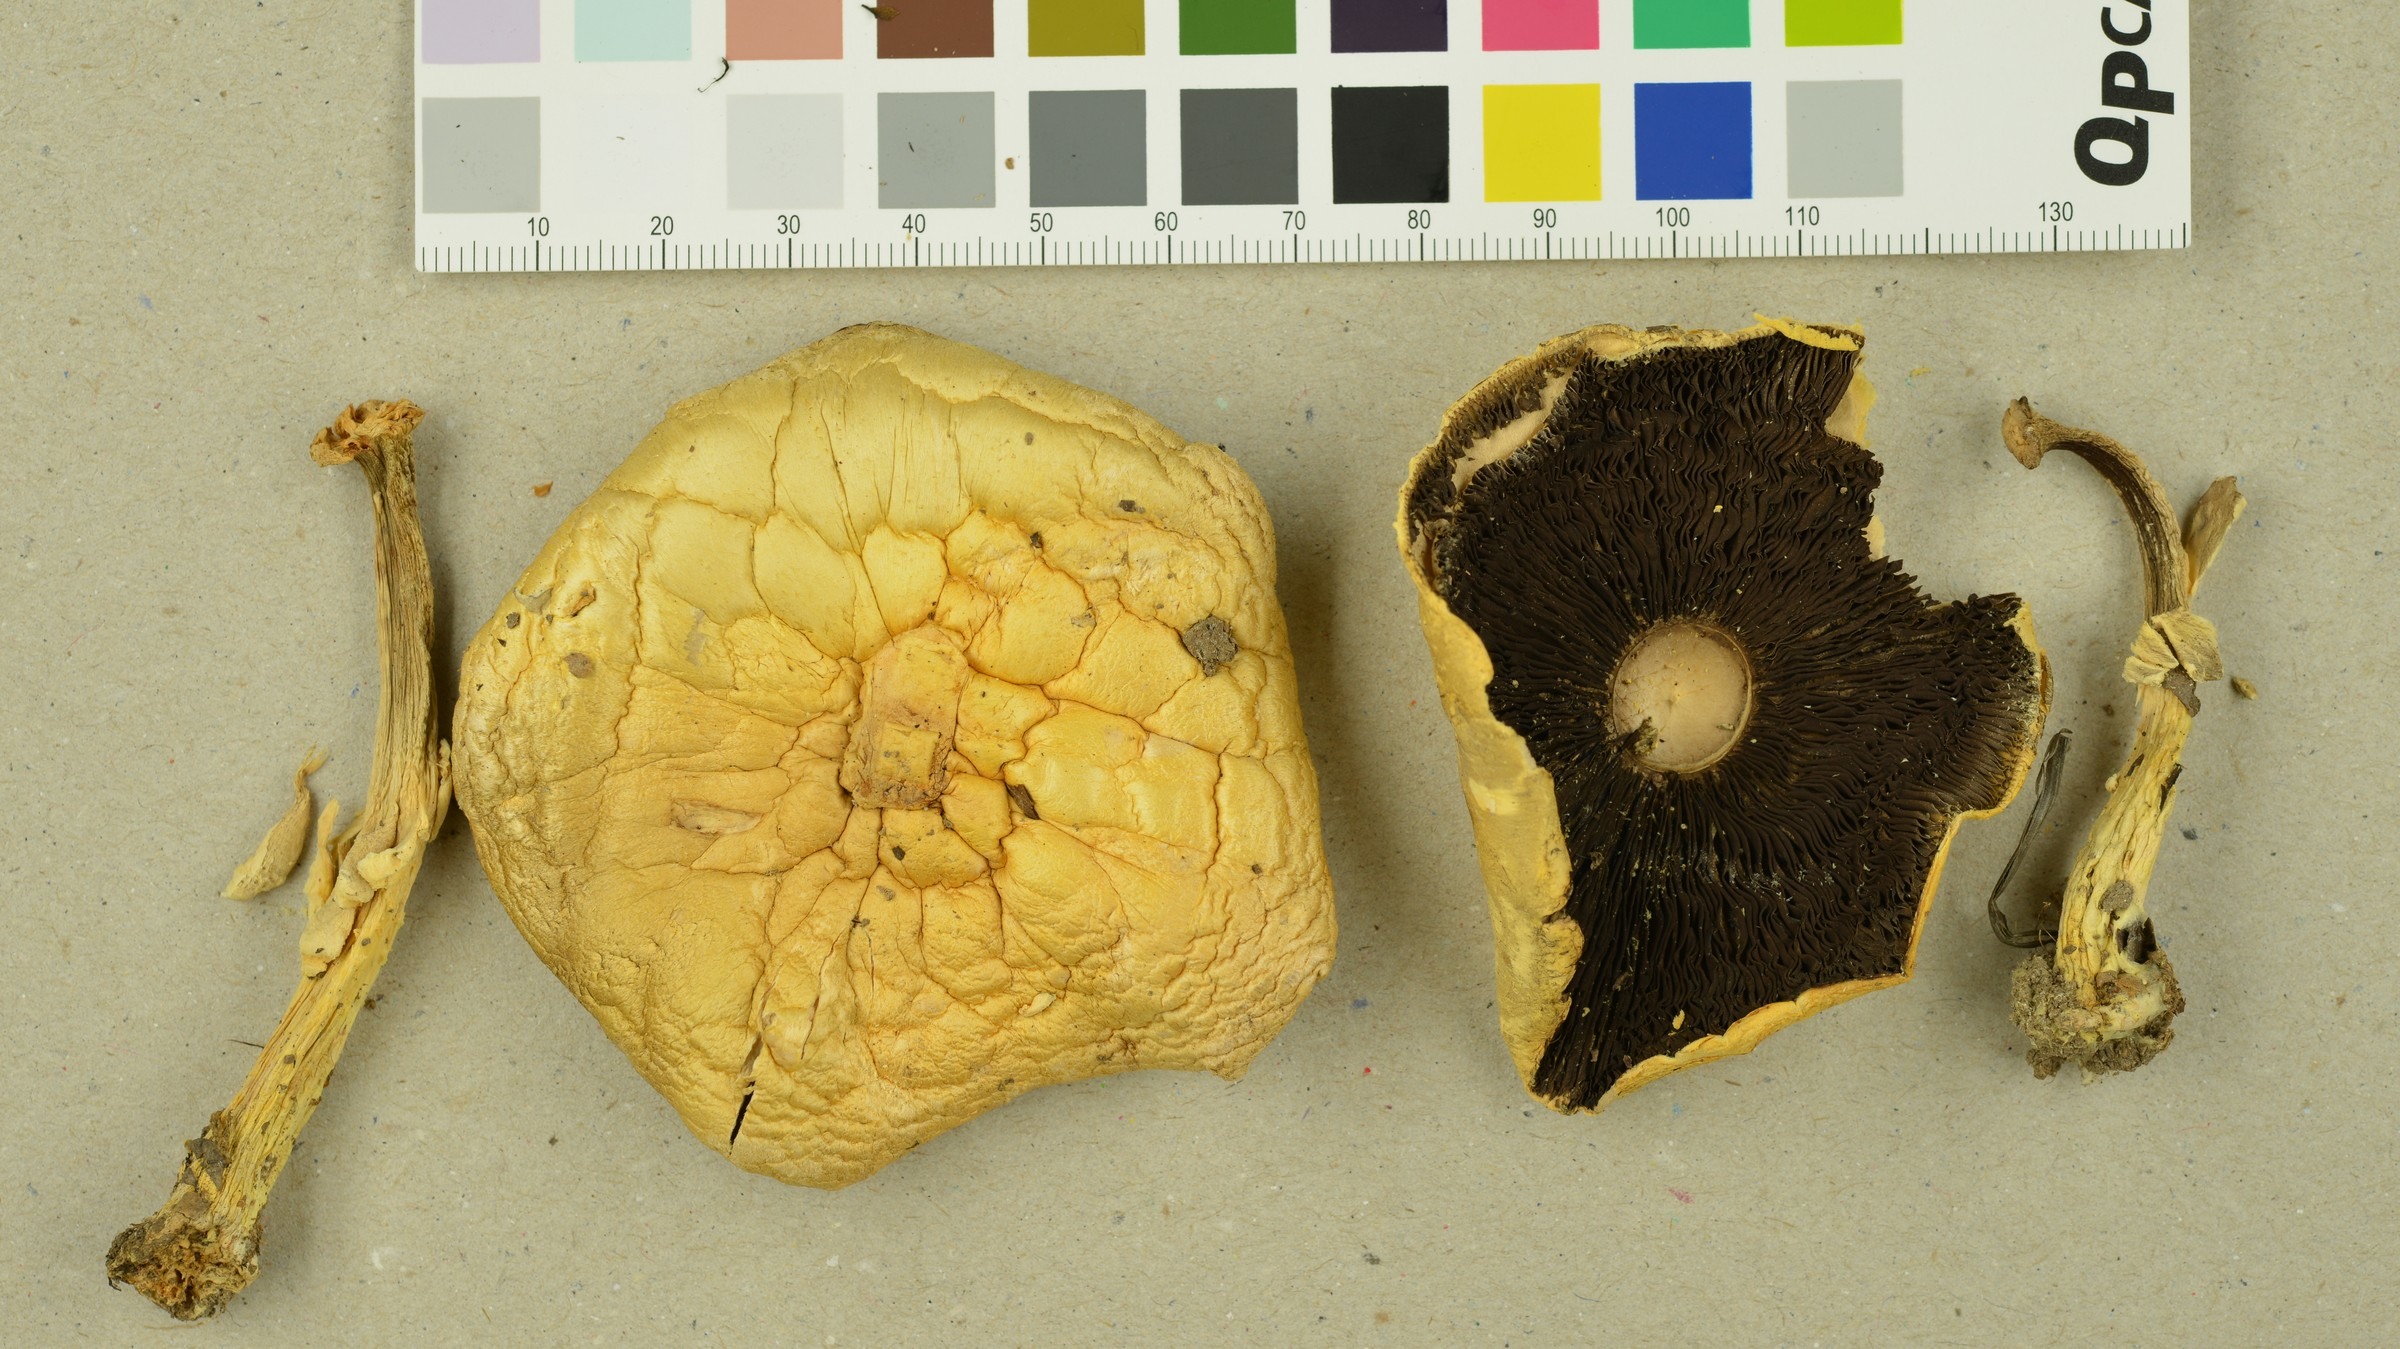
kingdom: Fungi
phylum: Basidiomycota
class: Agaricomycetes
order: Agaricales
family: Agaricaceae
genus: Agaricus
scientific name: Agaricus sylvicola
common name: Wood mushroom
